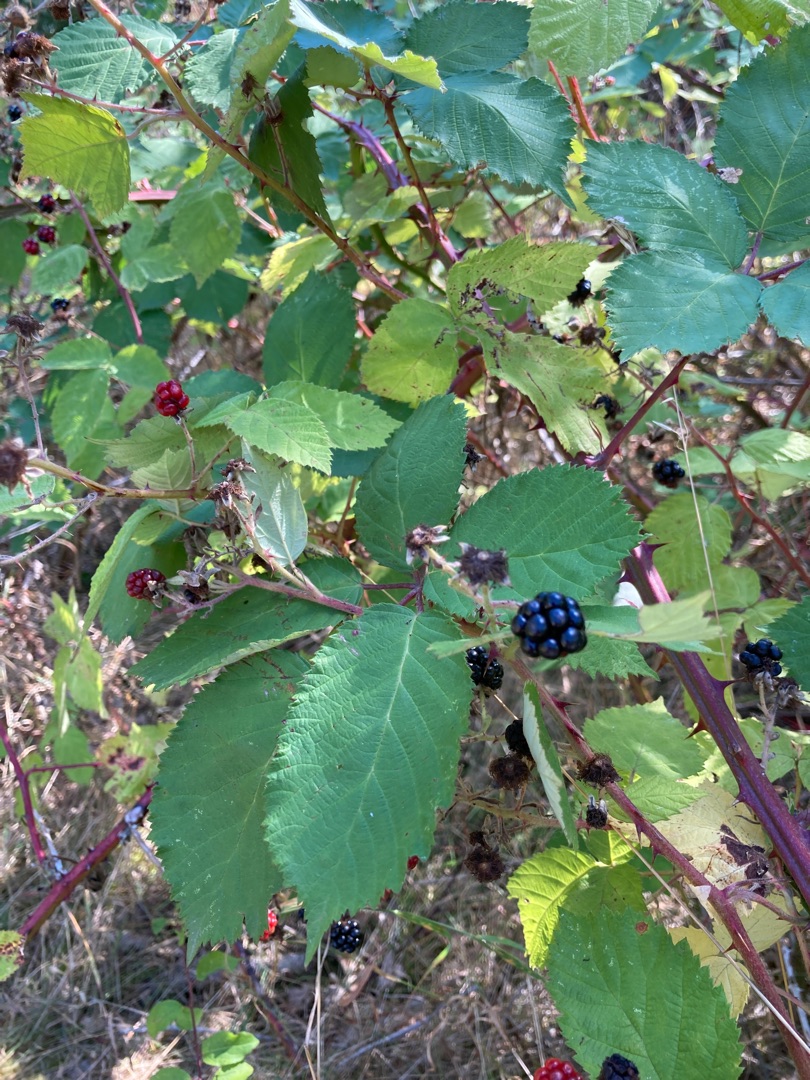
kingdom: Plantae
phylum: Tracheophyta
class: Magnoliopsida
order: Rosales
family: Rosaceae
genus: Rubus
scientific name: Rubus armeniacus
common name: Armensk brombær
